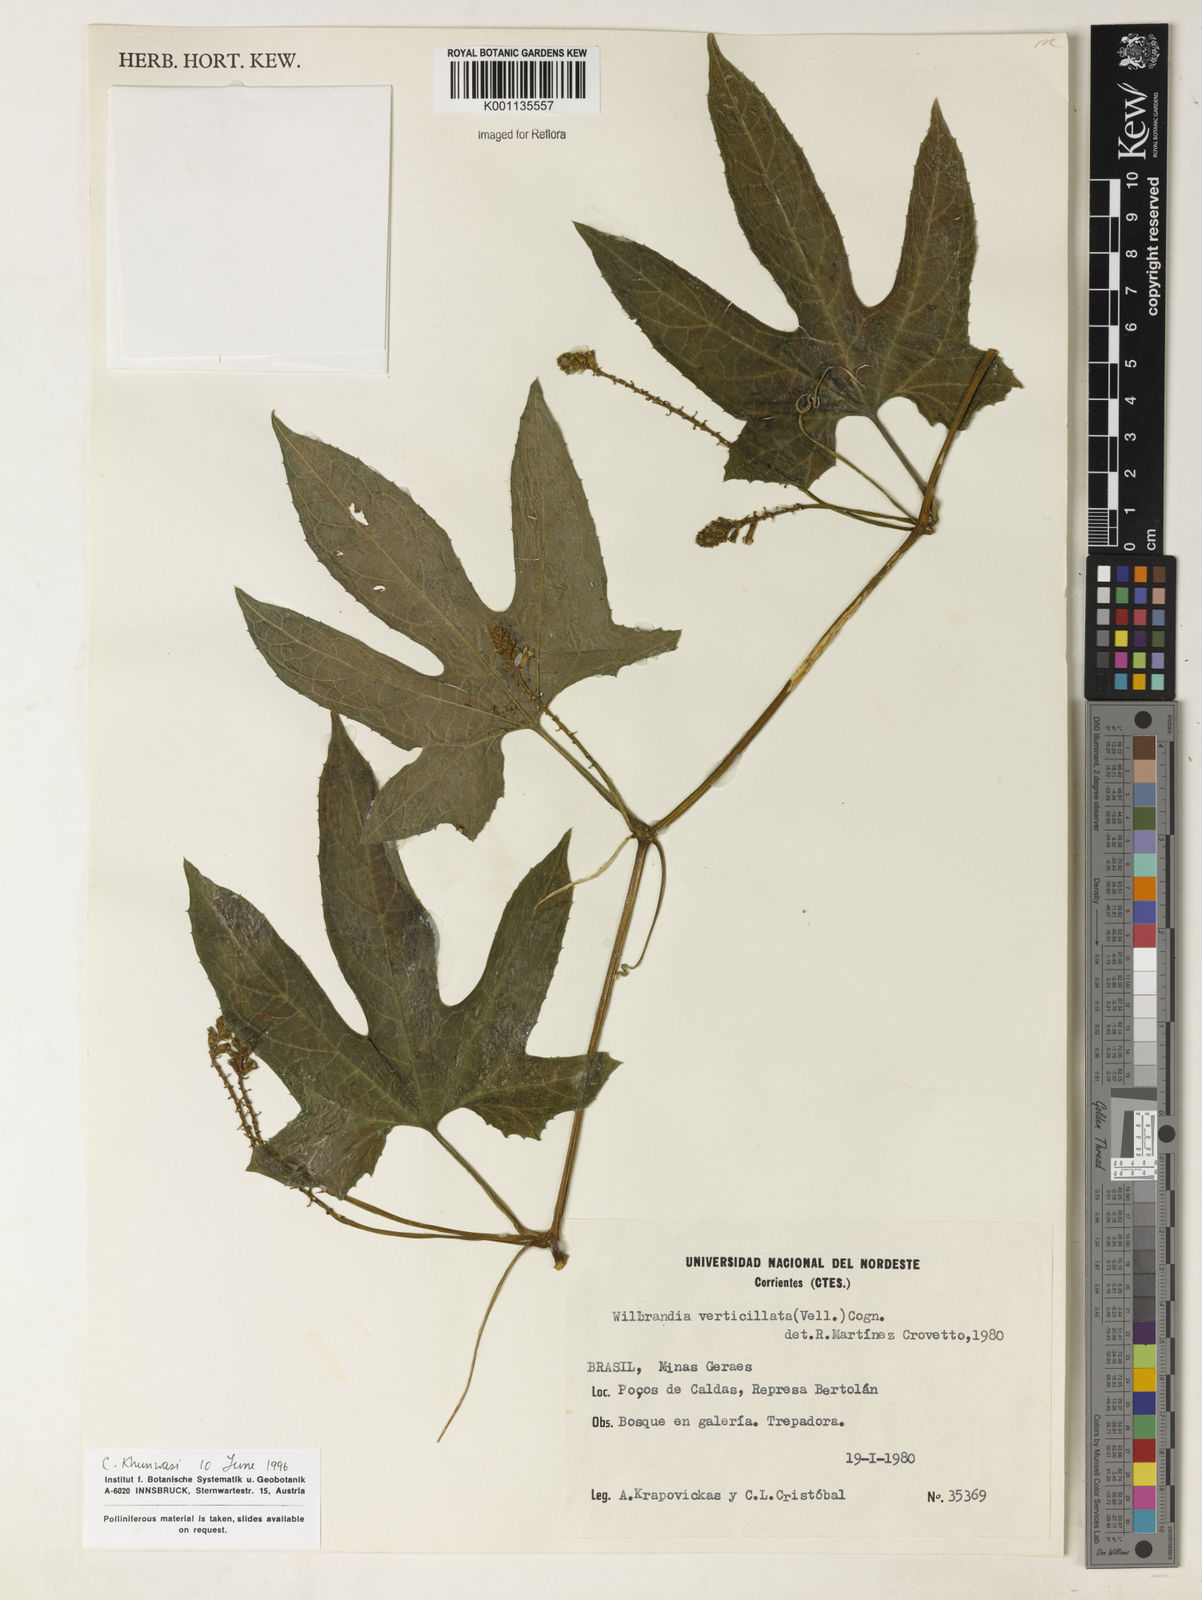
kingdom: Plantae
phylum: Tracheophyta
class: Magnoliopsida
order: Cucurbitales
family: Cucurbitaceae
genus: Wilbrandia
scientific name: Wilbrandia verticillata
